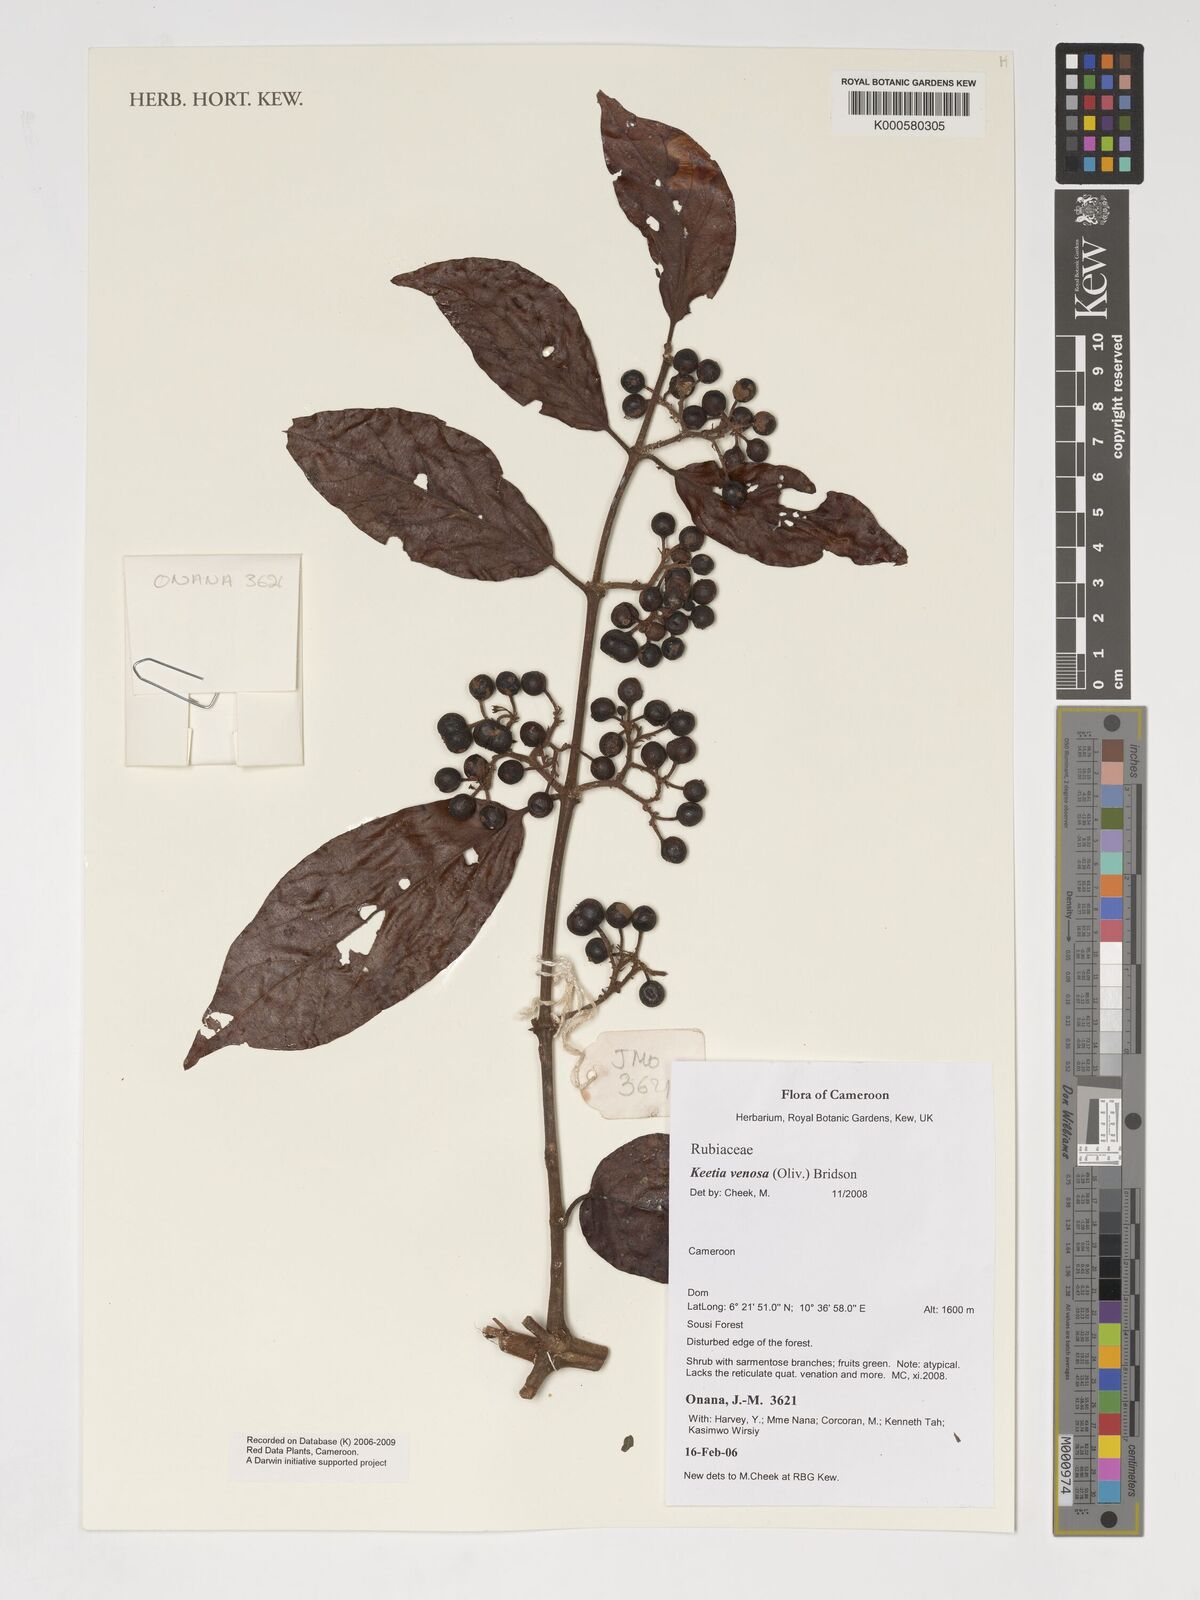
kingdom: Plantae
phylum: Tracheophyta
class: Magnoliopsida
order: Gentianales
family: Rubiaceae
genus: Keetia
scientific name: Keetia venosa
